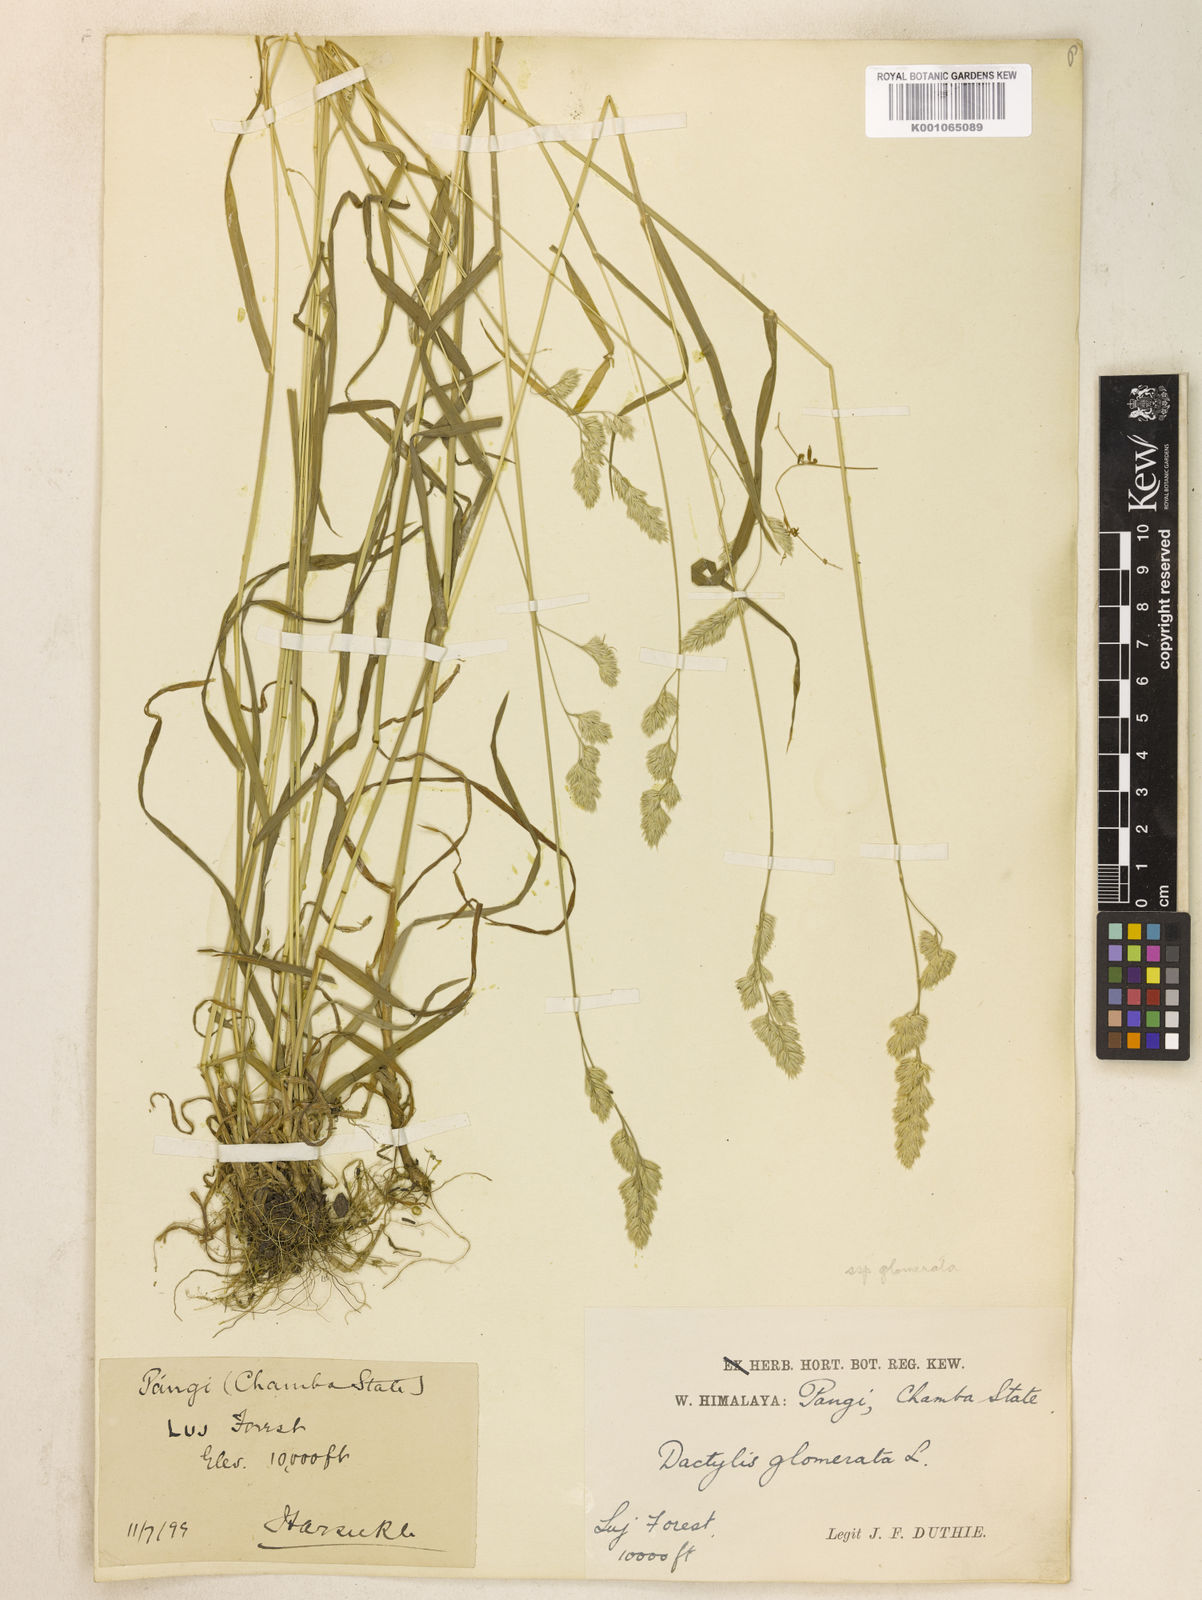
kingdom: Plantae
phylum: Tracheophyta
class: Liliopsida
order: Poales
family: Poaceae
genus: Dactylis
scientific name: Dactylis glomerata
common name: Orchardgrass
